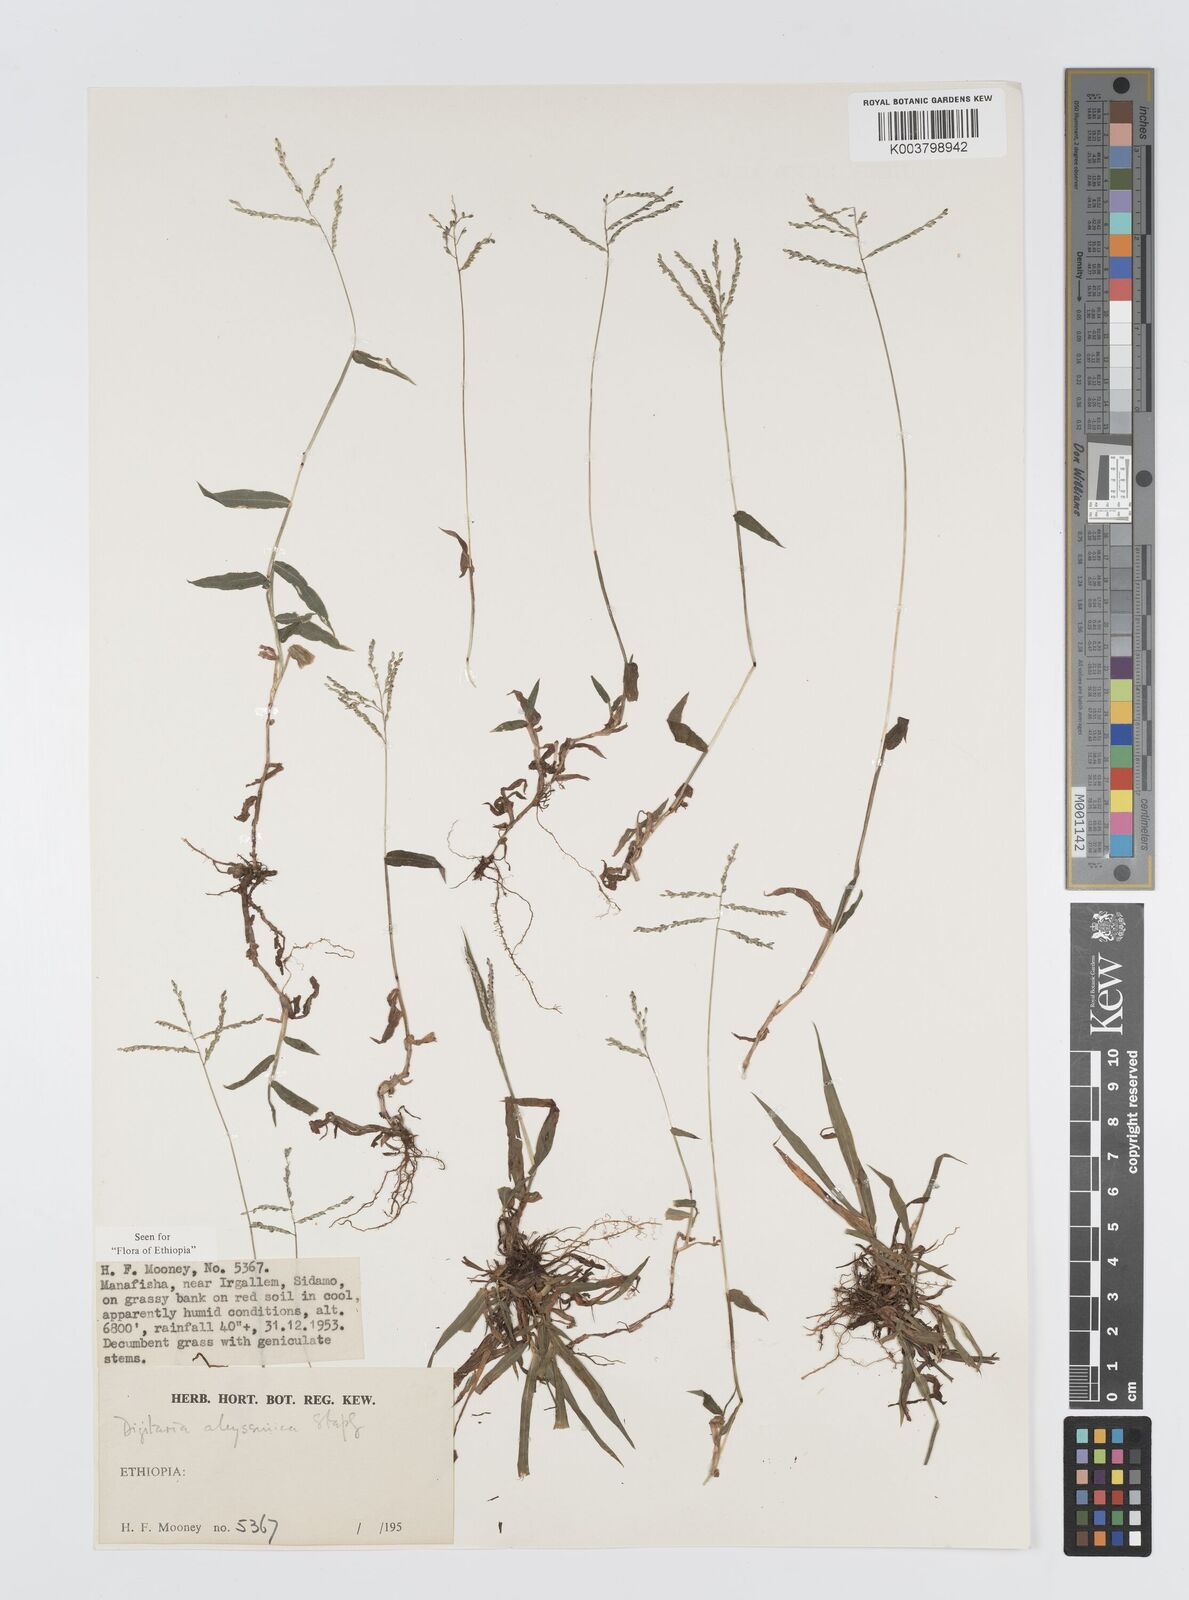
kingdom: Plantae
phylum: Tracheophyta
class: Liliopsida
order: Poales
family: Poaceae
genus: Digitaria
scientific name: Digitaria abyssinica
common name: African couchgrass
